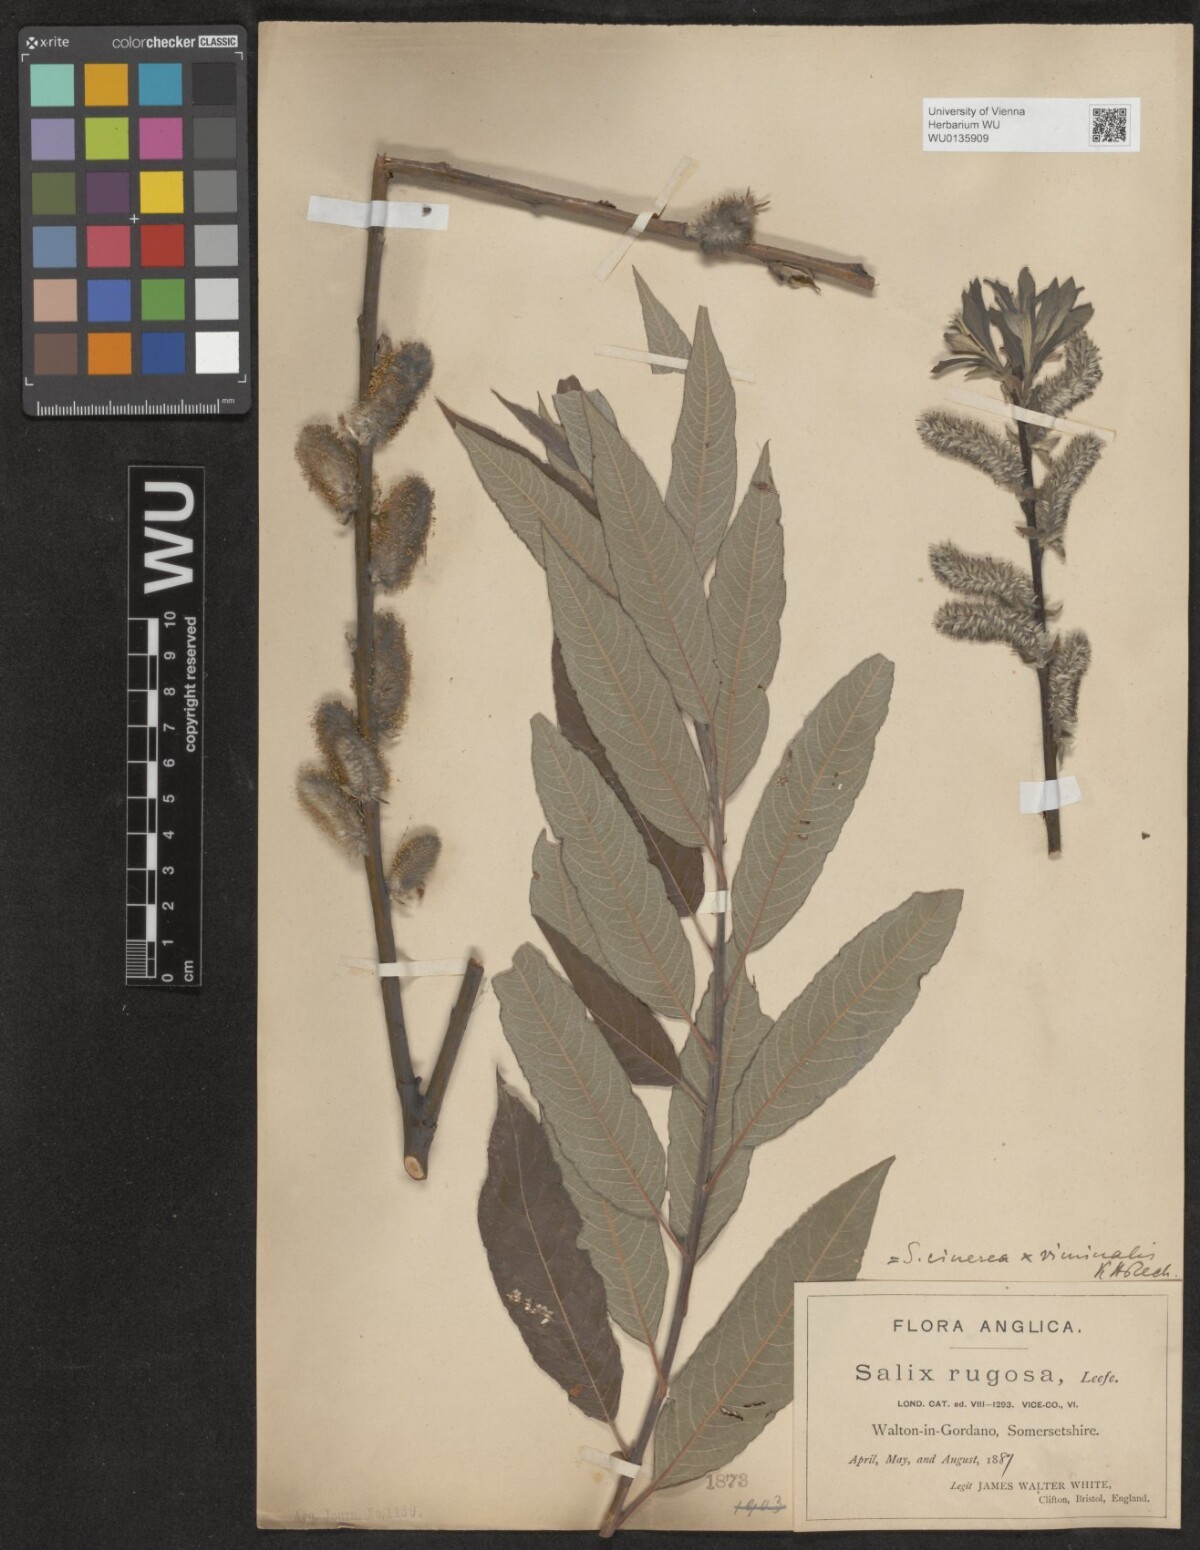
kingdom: Plantae
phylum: Tracheophyta
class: Magnoliopsida
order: Malpighiales
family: Salicaceae
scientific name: Salicaceae
